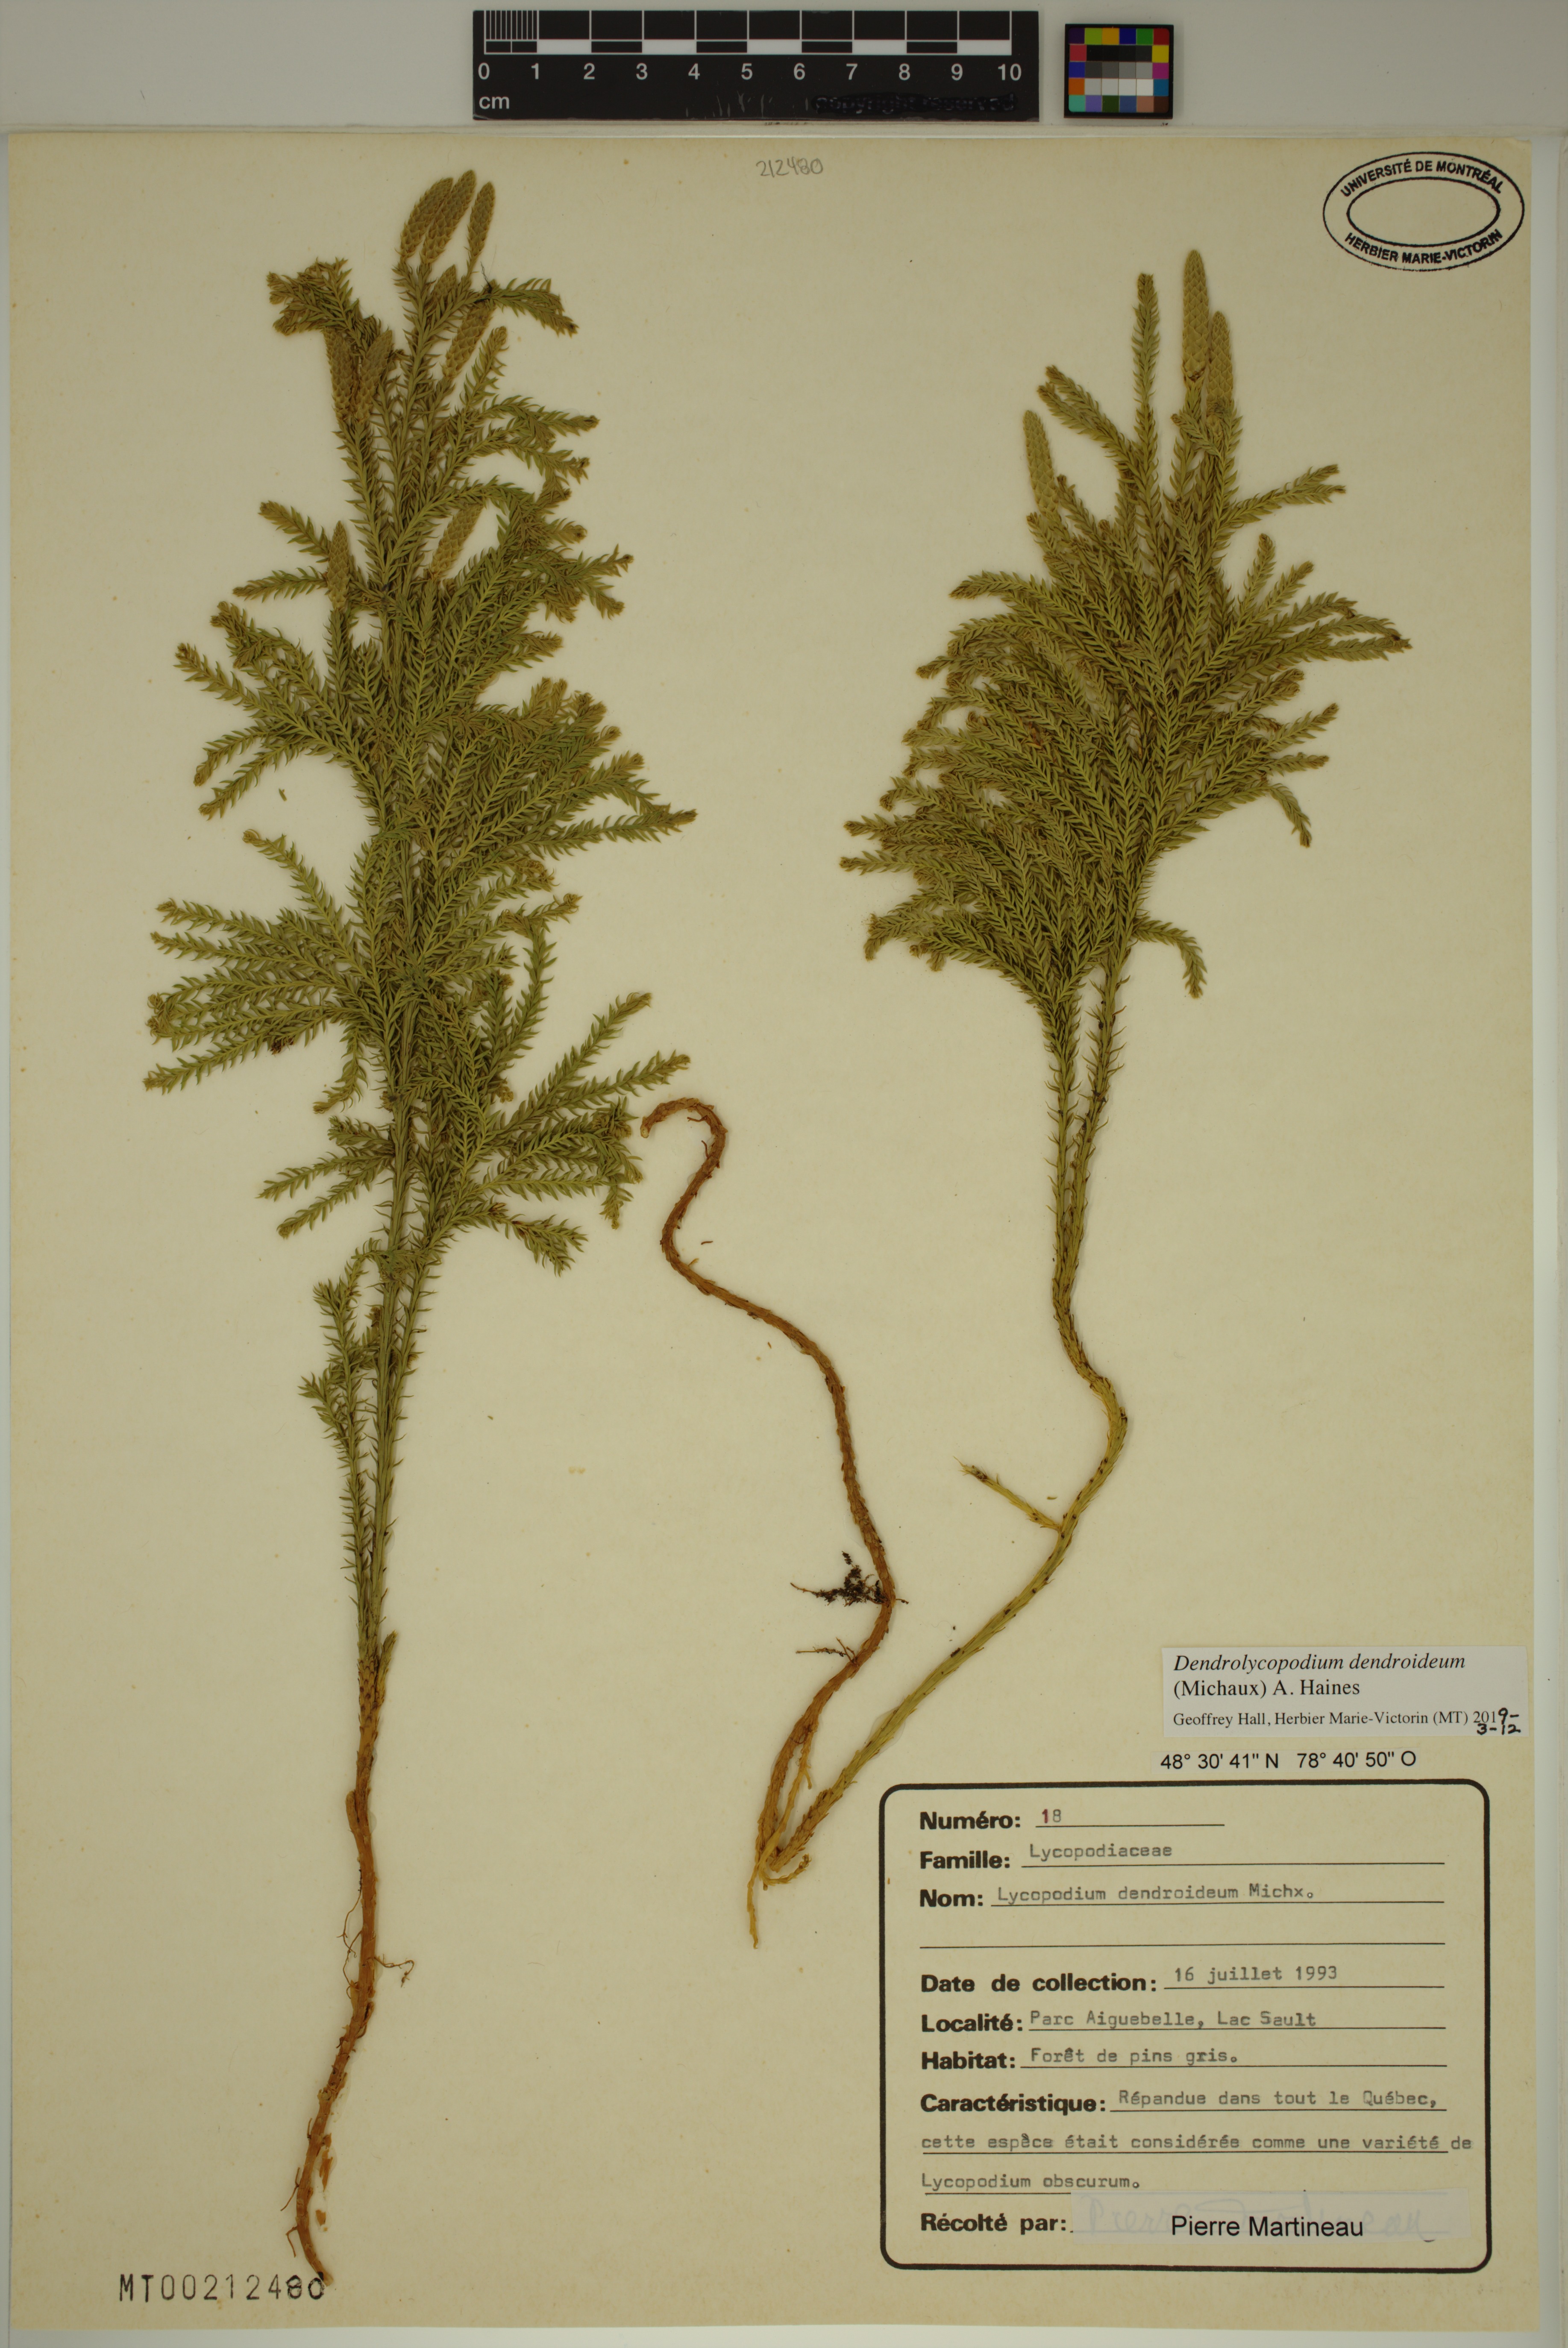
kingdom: Plantae
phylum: Tracheophyta
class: Lycopodiopsida
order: Lycopodiales
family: Lycopodiaceae
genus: Dendrolycopodium
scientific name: Dendrolycopodium dendroideum
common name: Northern tree-clubmoss
